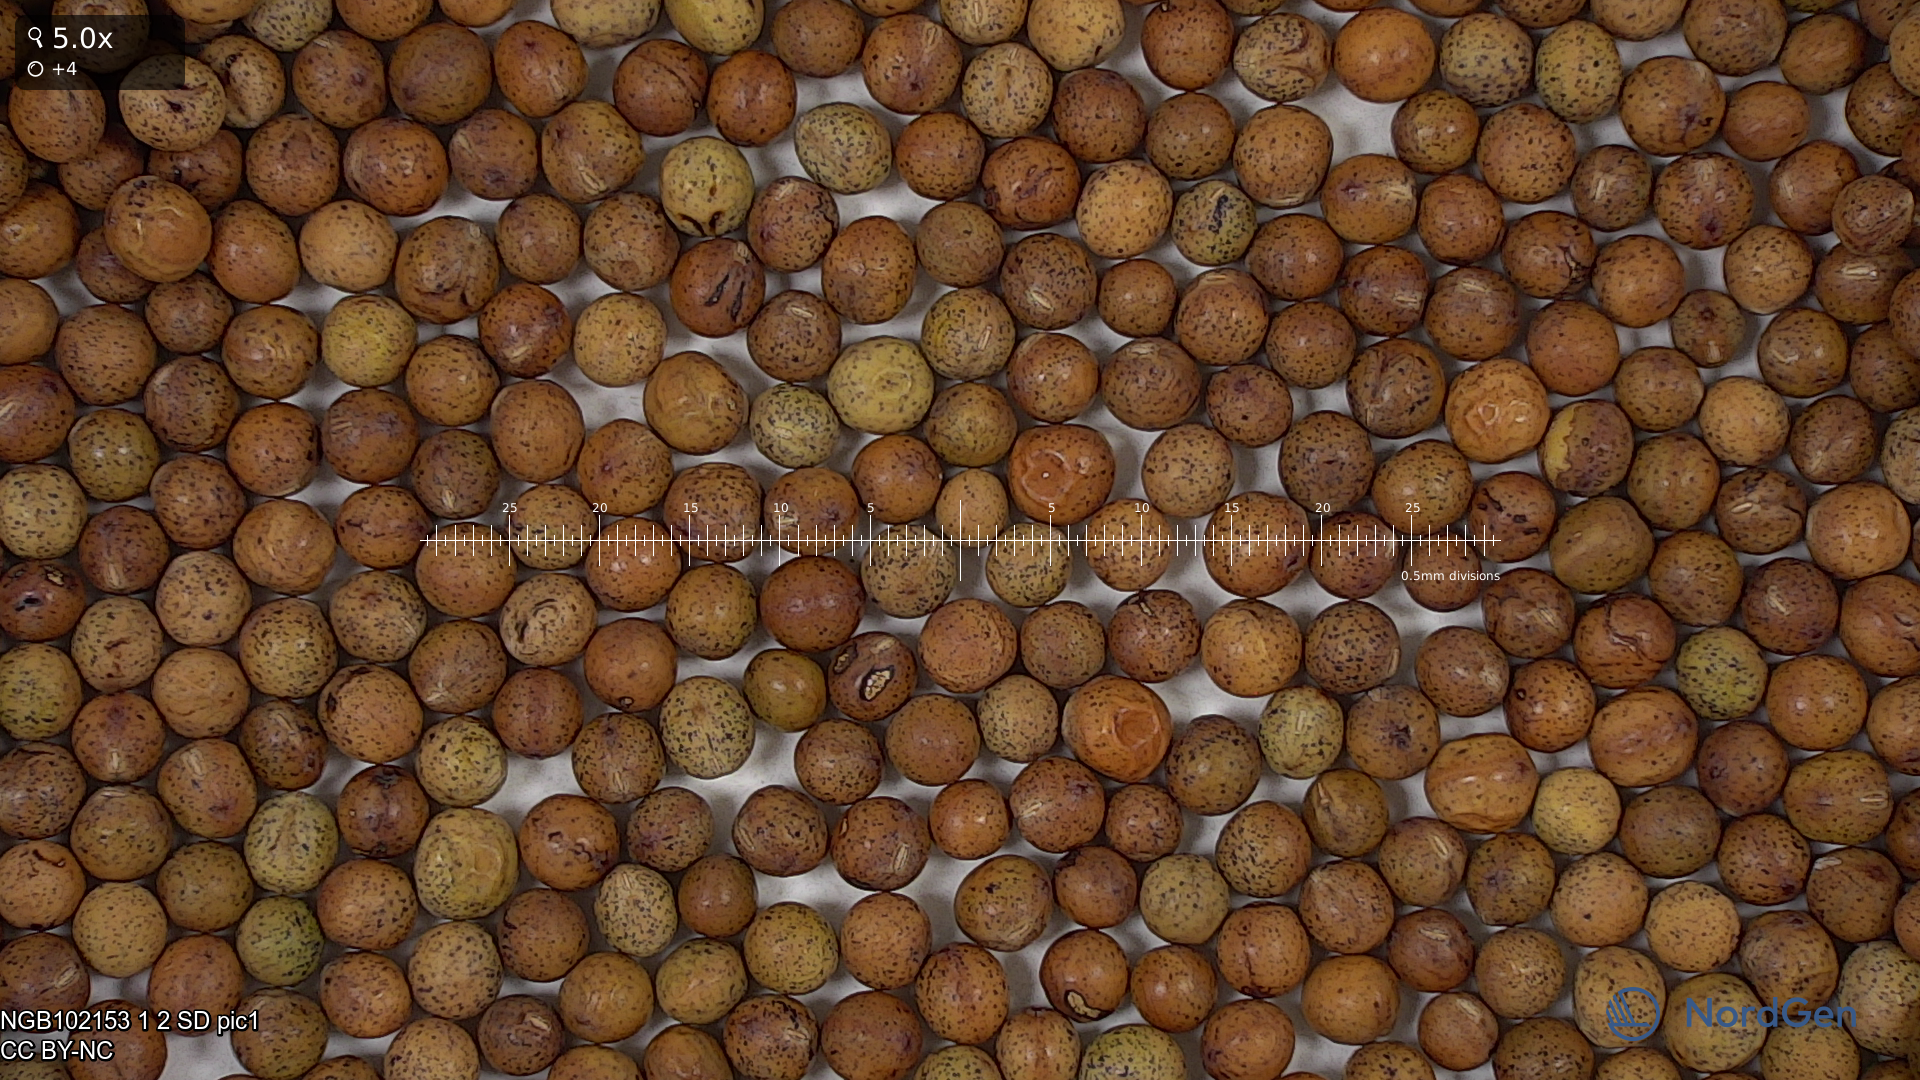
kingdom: Plantae
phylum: Tracheophyta
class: Magnoliopsida
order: Fabales
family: Fabaceae
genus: Lathyrus
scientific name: Lathyrus oleraceus
